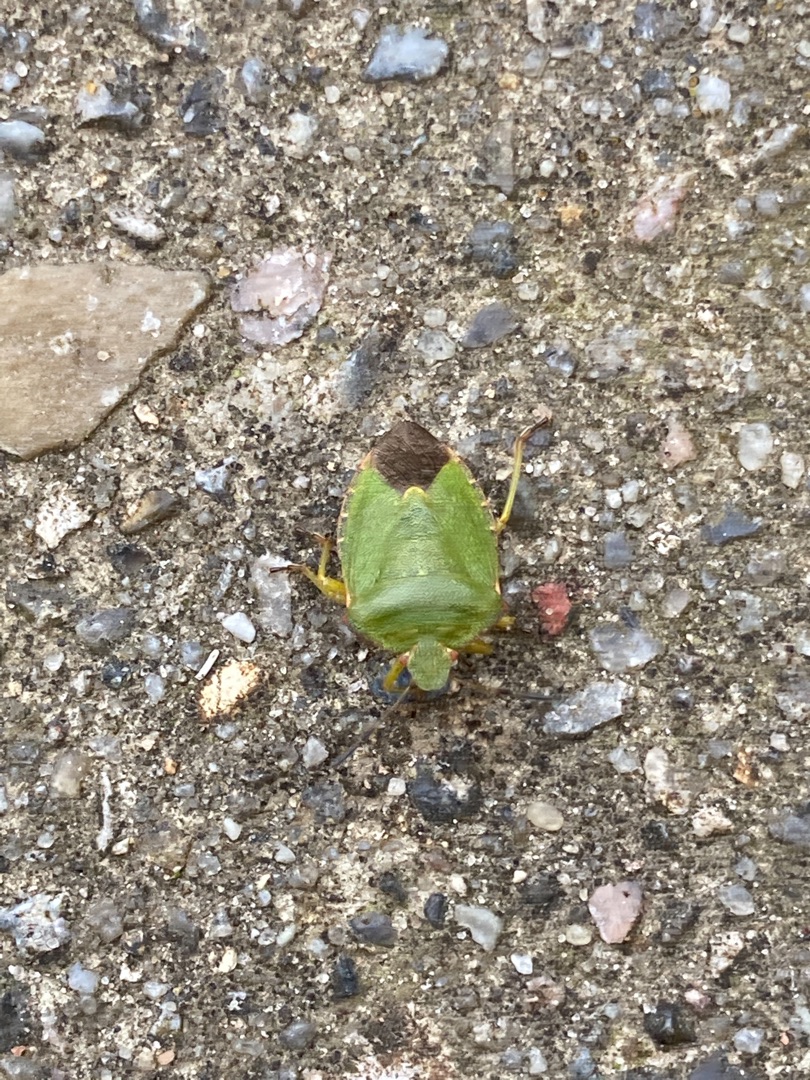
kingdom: Animalia
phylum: Arthropoda
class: Insecta
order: Hemiptera
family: Pentatomidae
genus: Palomena
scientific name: Palomena prasina
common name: Grøn bredtæge
